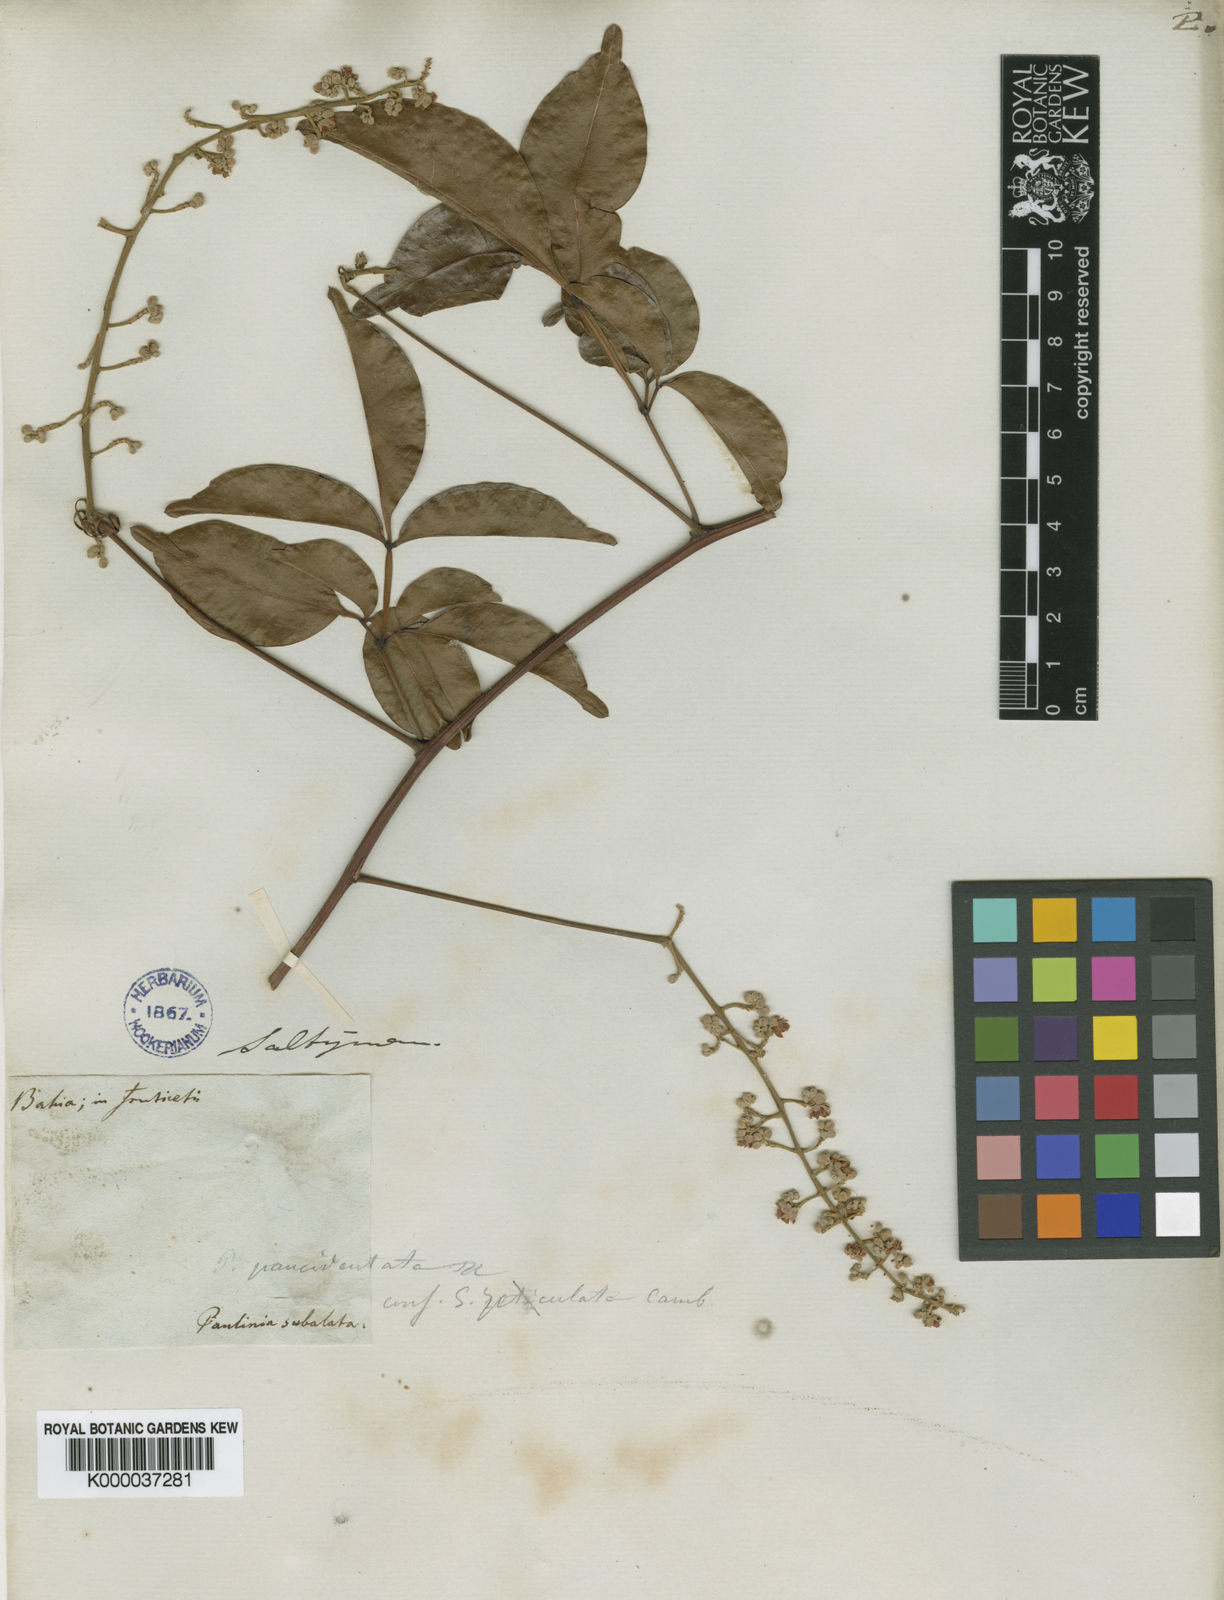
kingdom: Plantae
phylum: Tracheophyta
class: Magnoliopsida
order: Sapindales
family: Sapindaceae
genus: Serjania
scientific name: Serjania paucidentata
